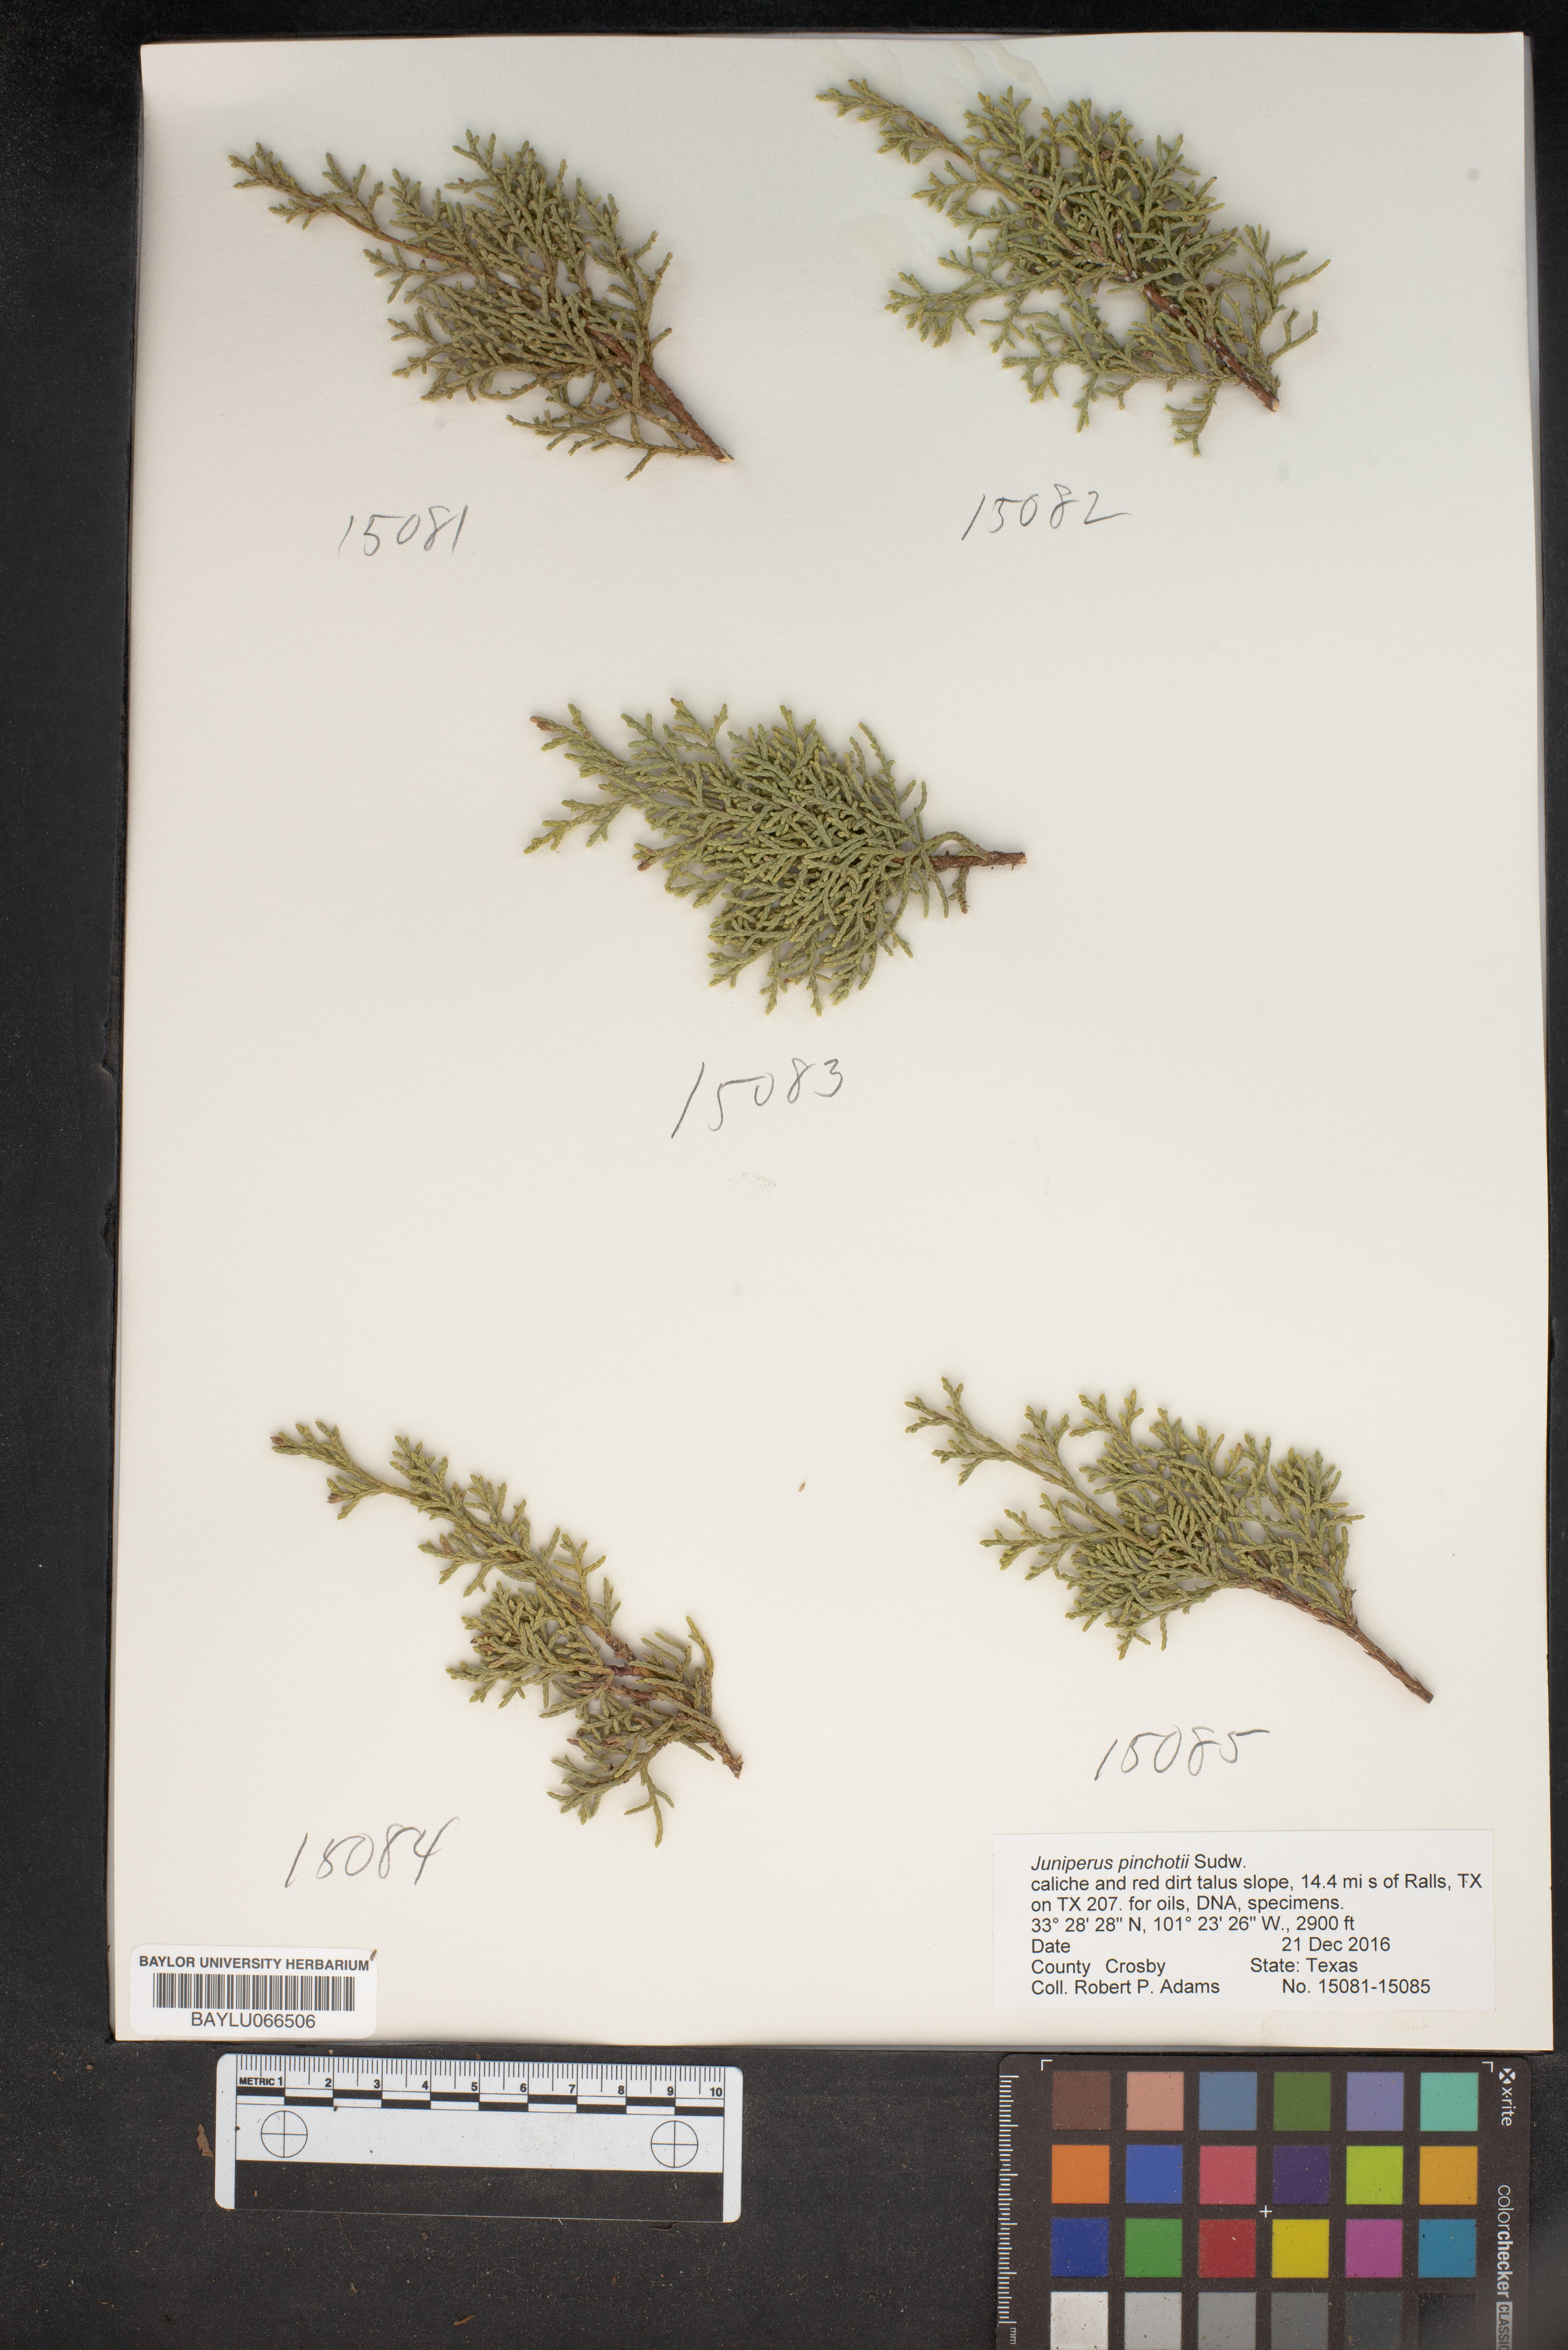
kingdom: Plantae
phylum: Tracheophyta
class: Pinopsida
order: Pinales
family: Cupressaceae
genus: Juniperus
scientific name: Juniperus pinchotii
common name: Pinchot juniper
